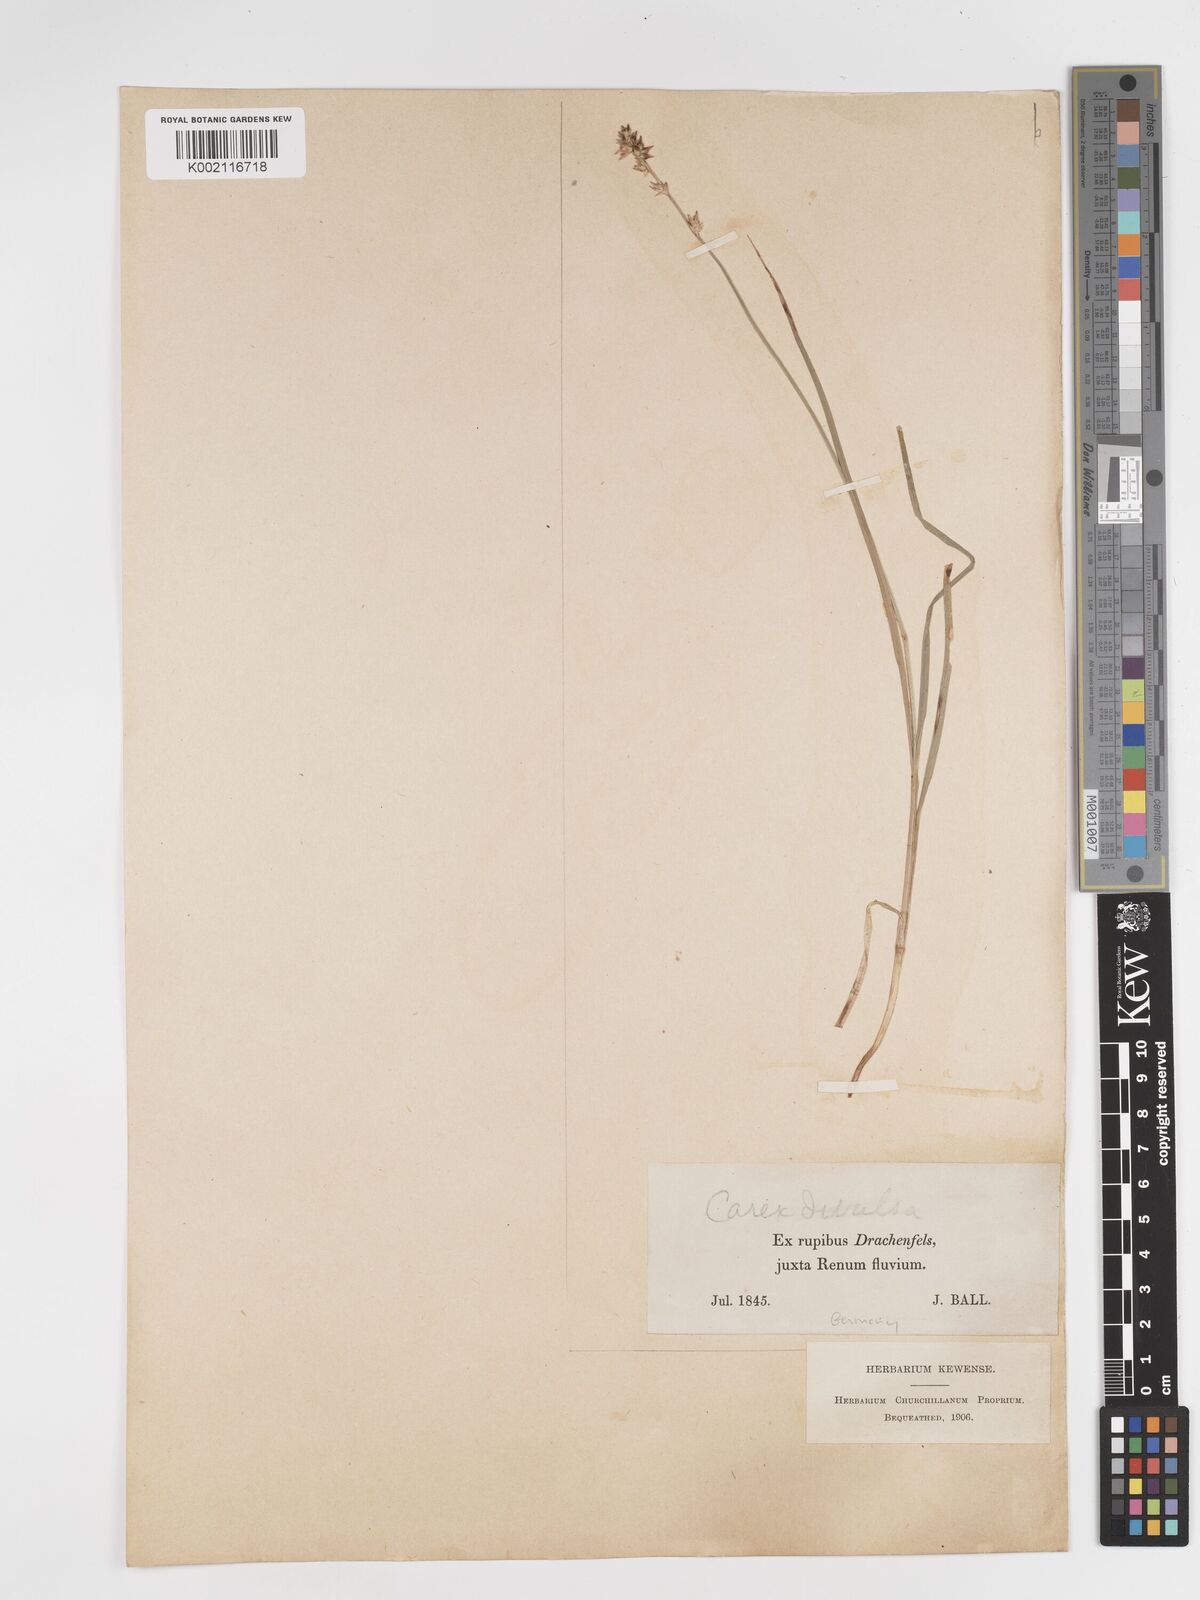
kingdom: Plantae
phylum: Tracheophyta
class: Liliopsida
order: Poales
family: Cyperaceae
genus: Carex
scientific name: Carex divulsa
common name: Grassland sedge
